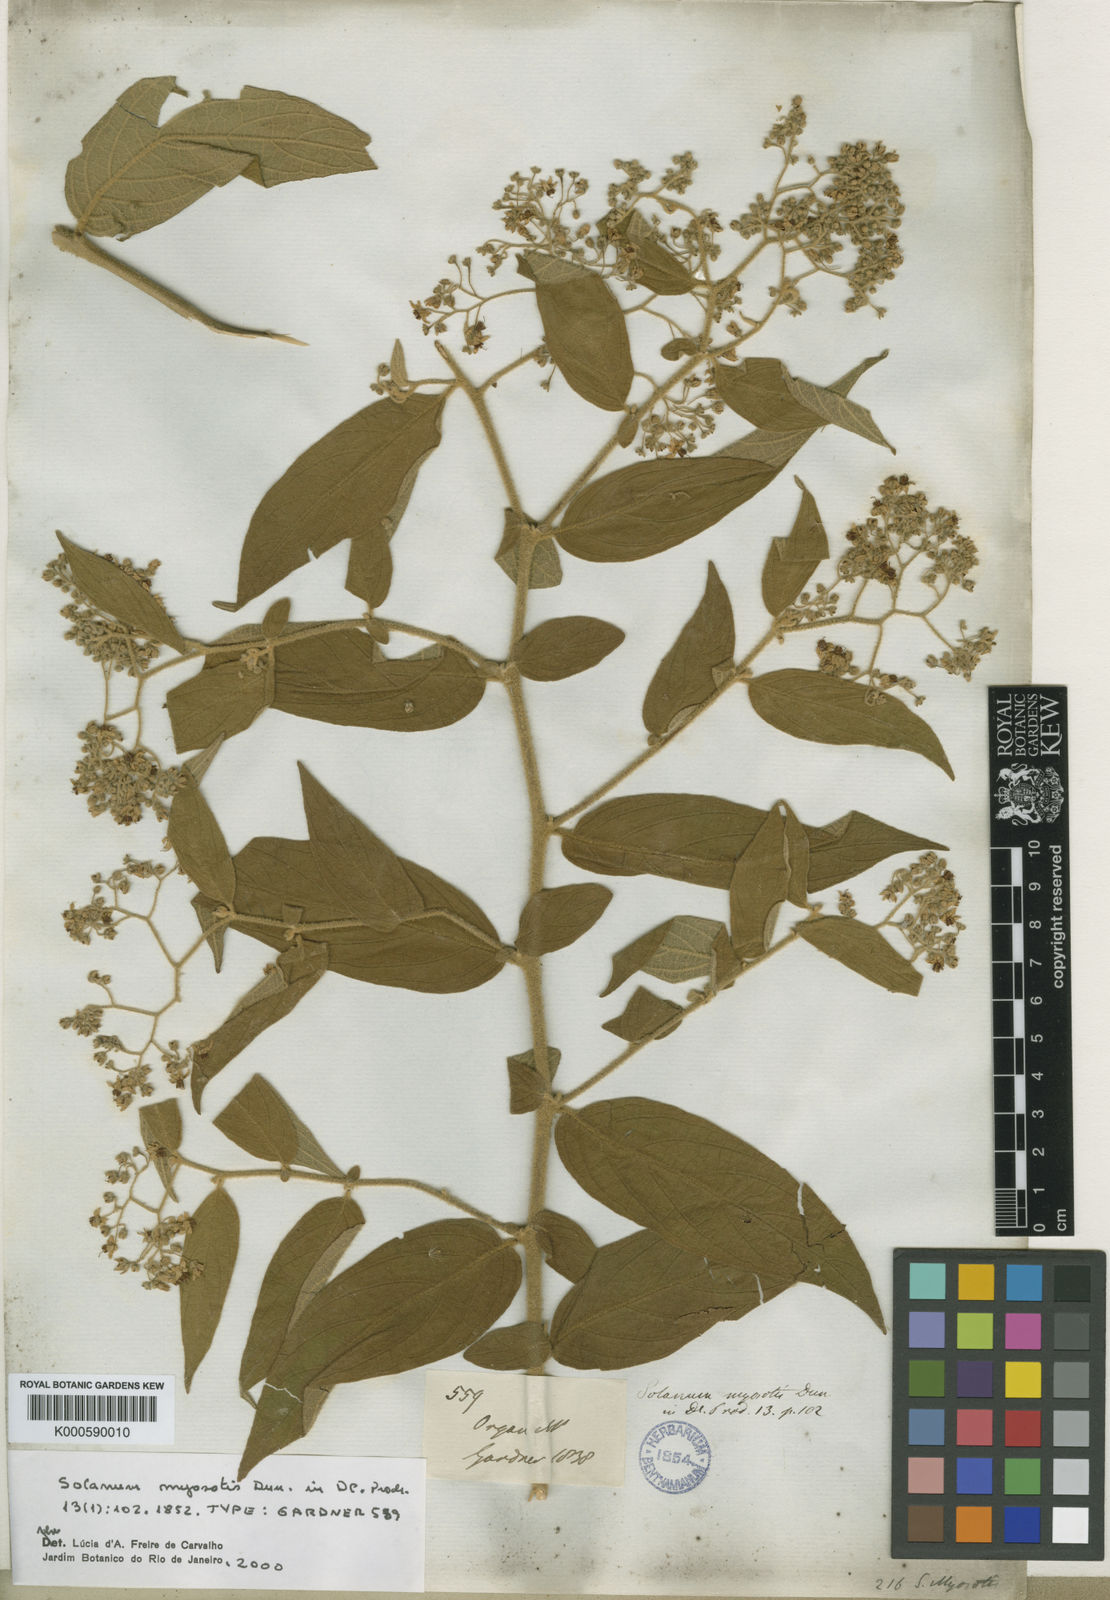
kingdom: Plantae
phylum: Tracheophyta
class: Magnoliopsida
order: Solanales
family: Solanaceae
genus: Solanum
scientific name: Solanum lantana
